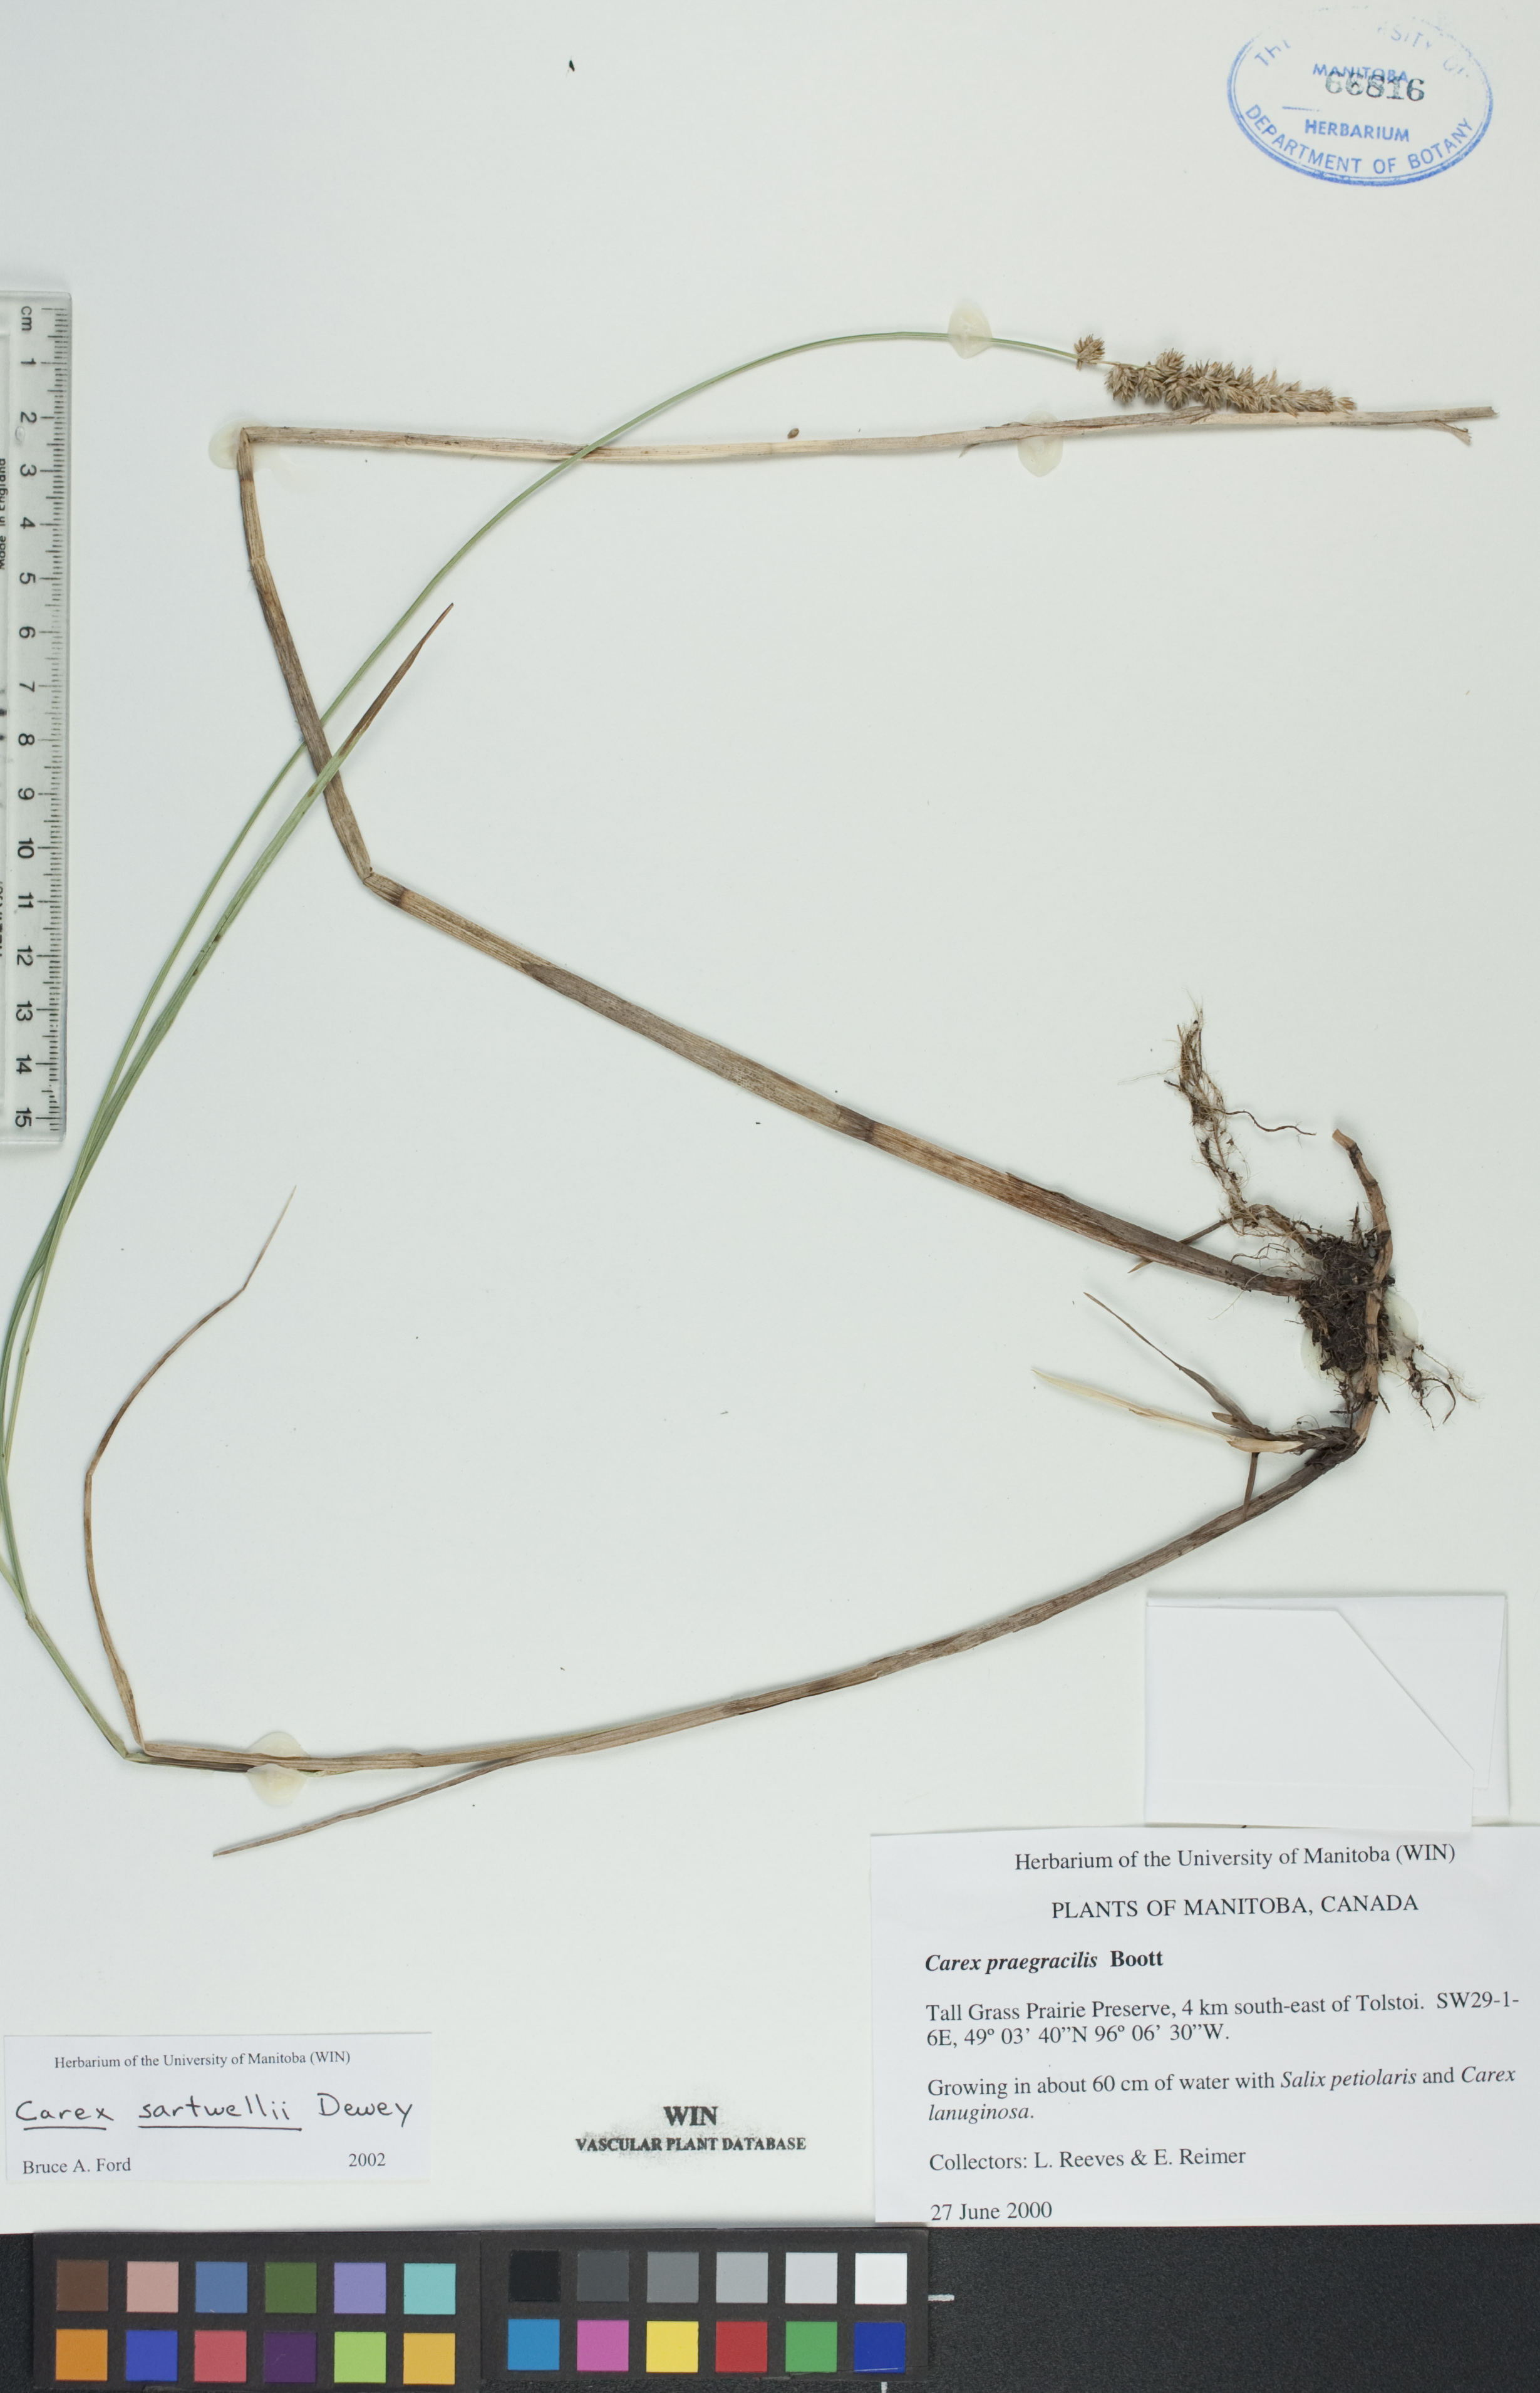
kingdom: Plantae
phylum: Tracheophyta
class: Liliopsida
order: Poales
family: Cyperaceae
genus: Carex
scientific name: Carex sartwellii
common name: Sartwell's sedge
